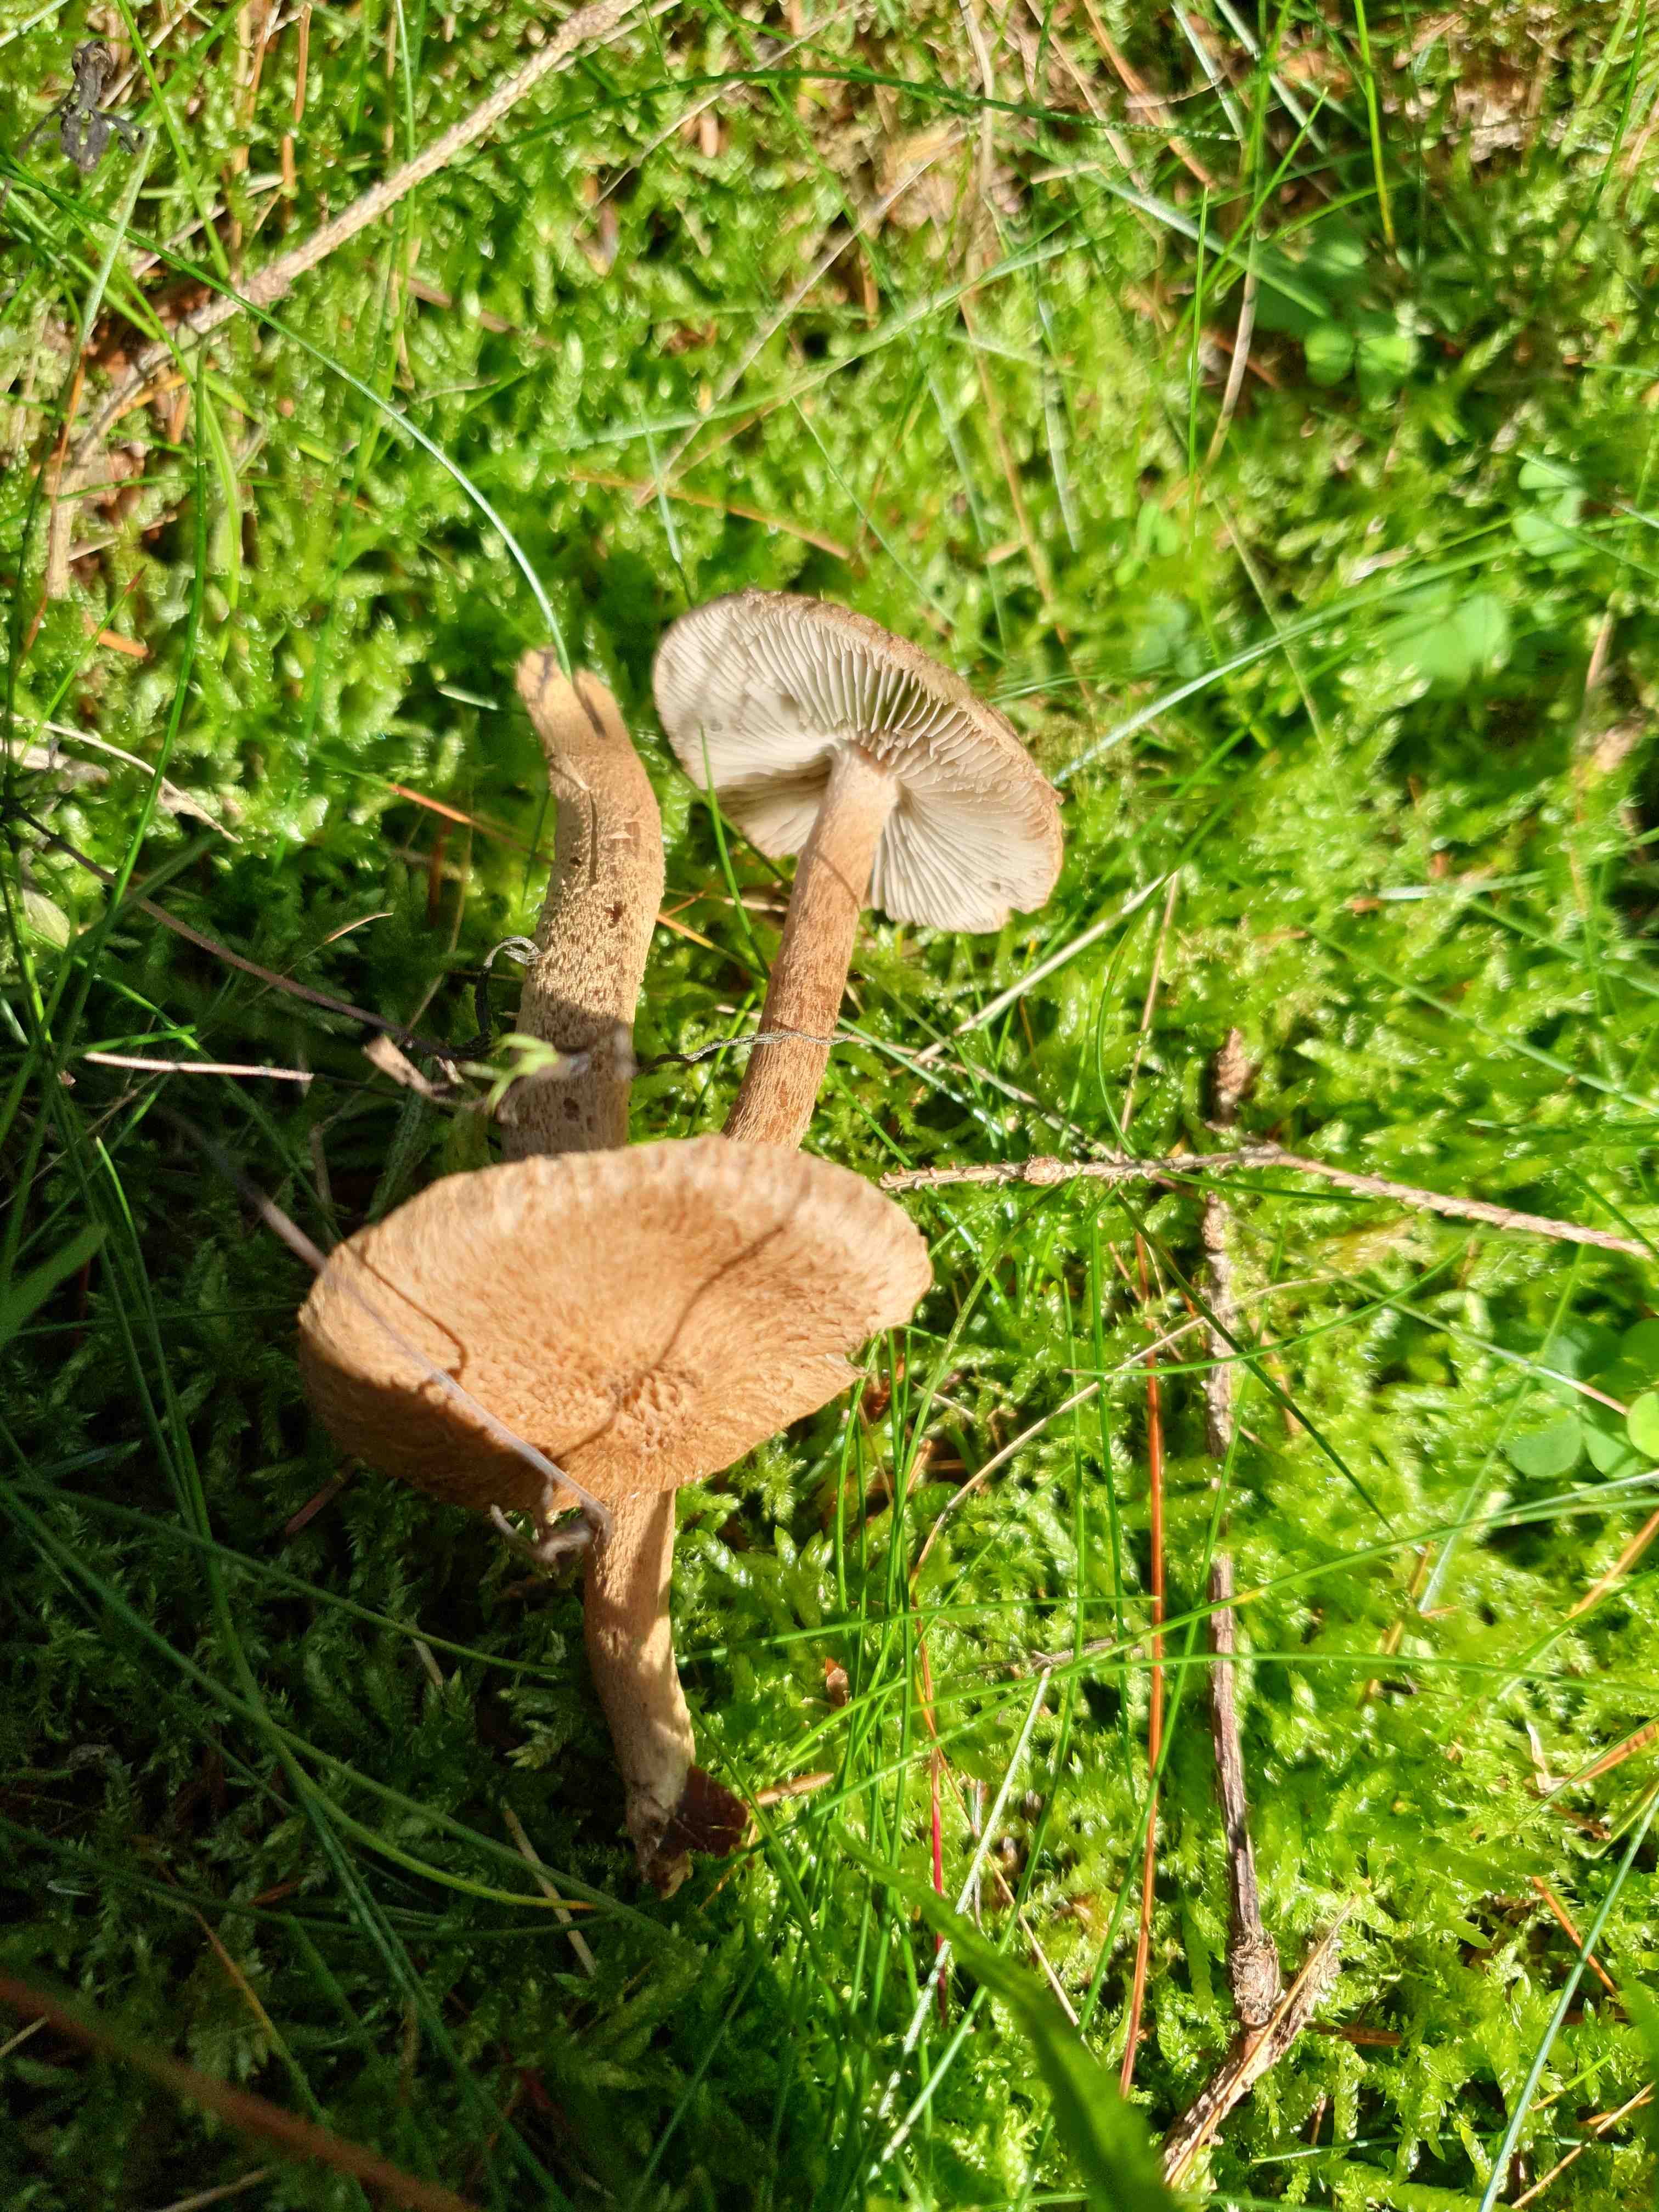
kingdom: Fungi
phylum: Basidiomycota
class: Agaricomycetes
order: Agaricales
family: Inocybaceae
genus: Inocybe
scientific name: Inocybe
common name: trævlhat
